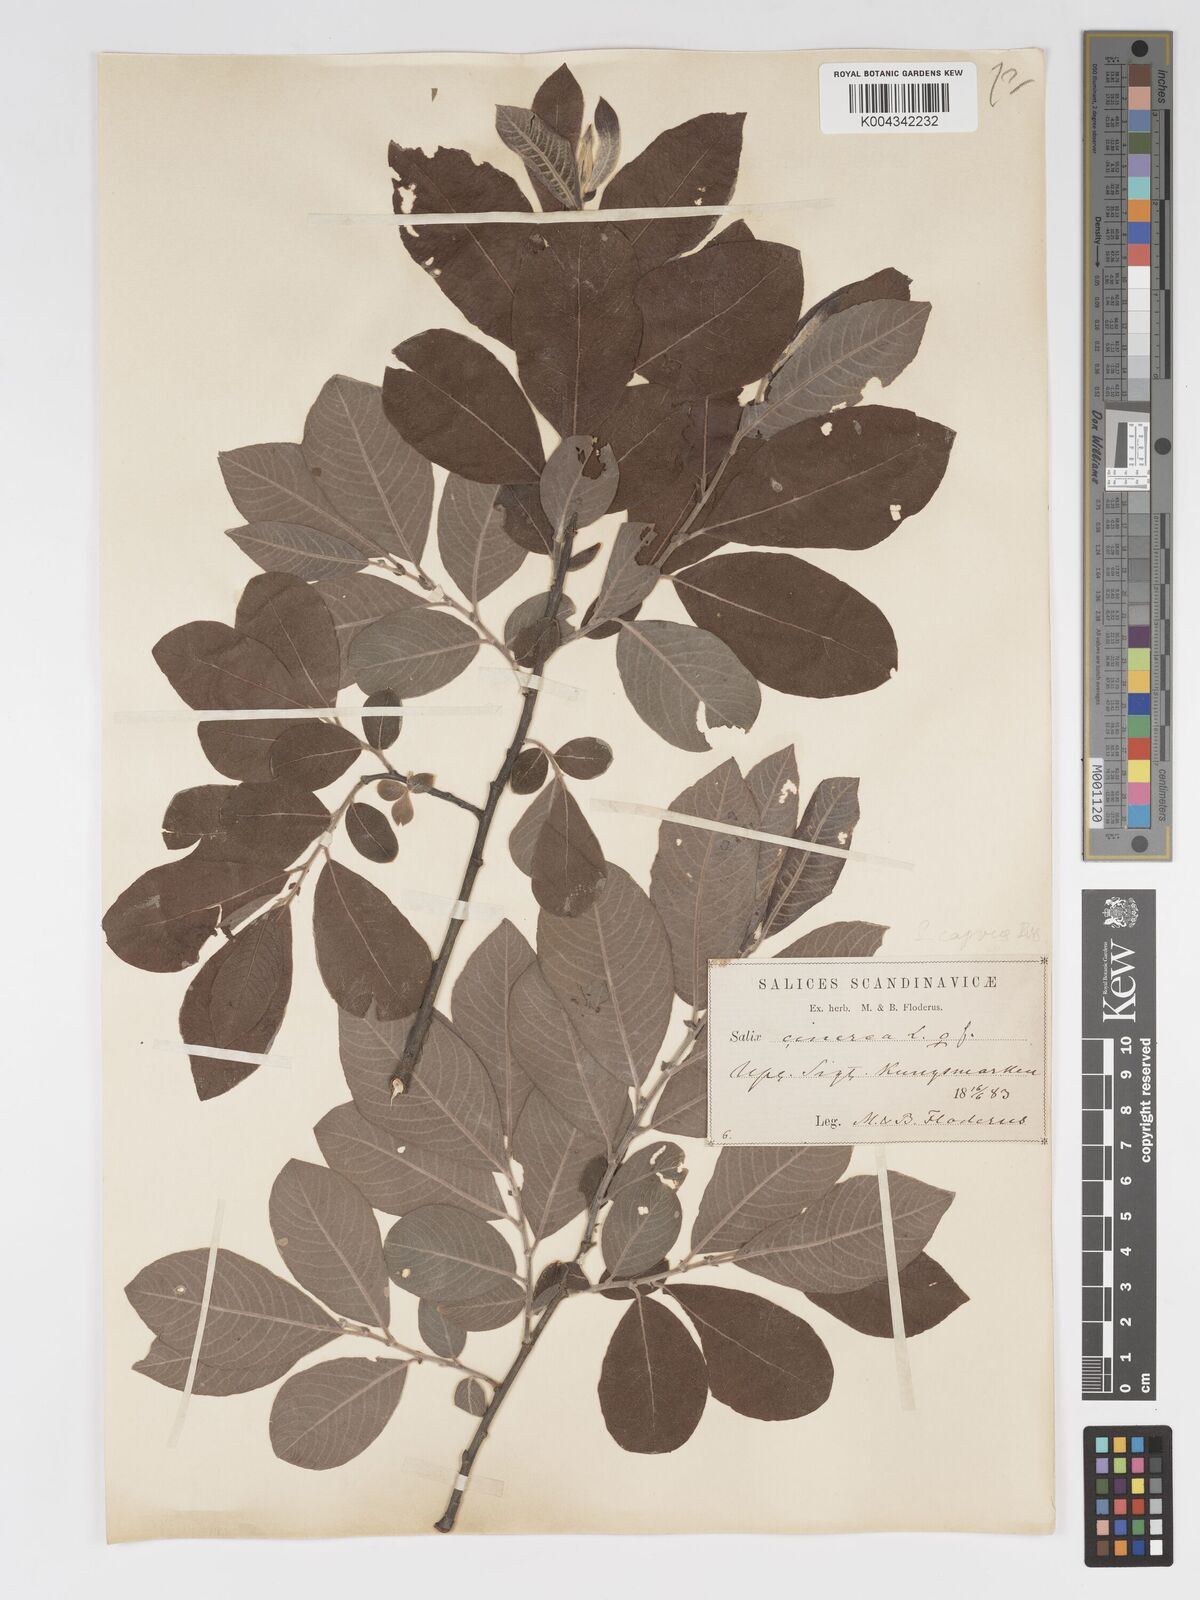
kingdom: Plantae
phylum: Tracheophyta
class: Magnoliopsida
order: Malpighiales
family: Salicaceae
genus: Salix
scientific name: Salix
